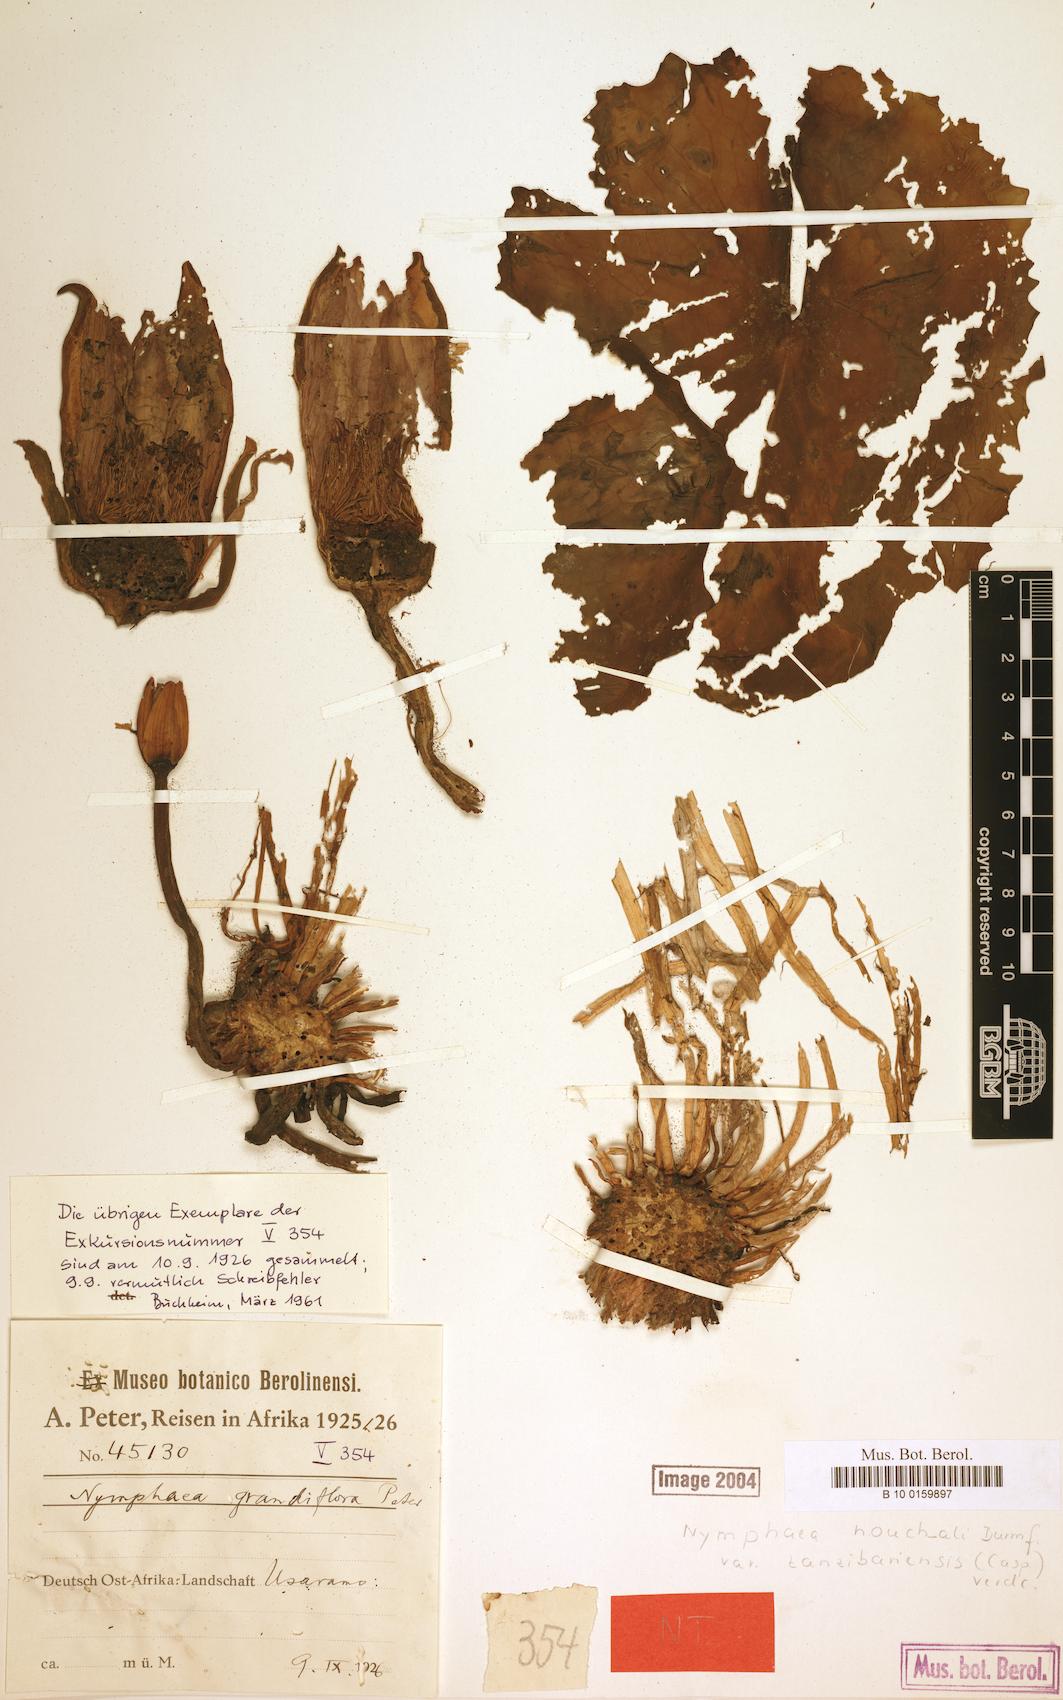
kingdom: Plantae
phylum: Tracheophyta
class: Magnoliopsida
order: Nymphaeales
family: Nymphaeaceae
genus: Nymphaea
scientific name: Nymphaea nouchali
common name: Blue lotus
